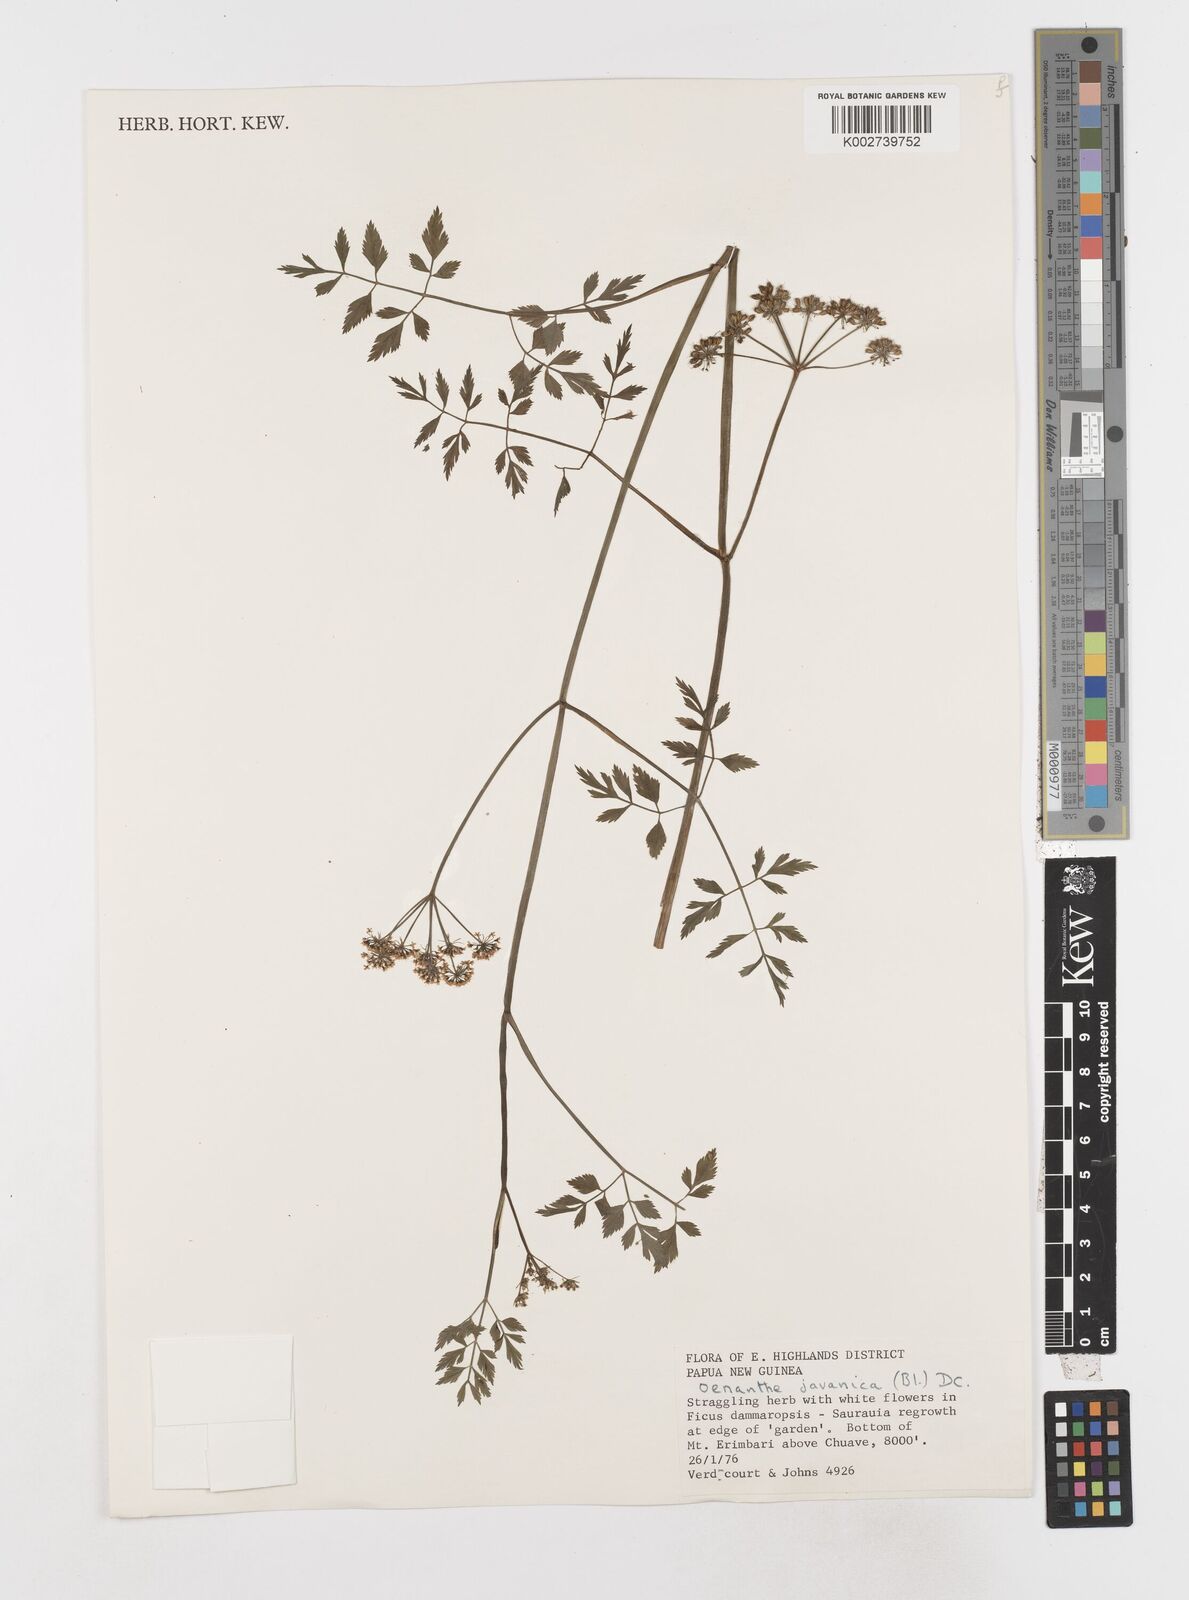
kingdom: Plantae
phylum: Tracheophyta
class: Magnoliopsida
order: Apiales
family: Apiaceae
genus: Oenanthe
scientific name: Oenanthe javanica
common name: Java water-dropwort
